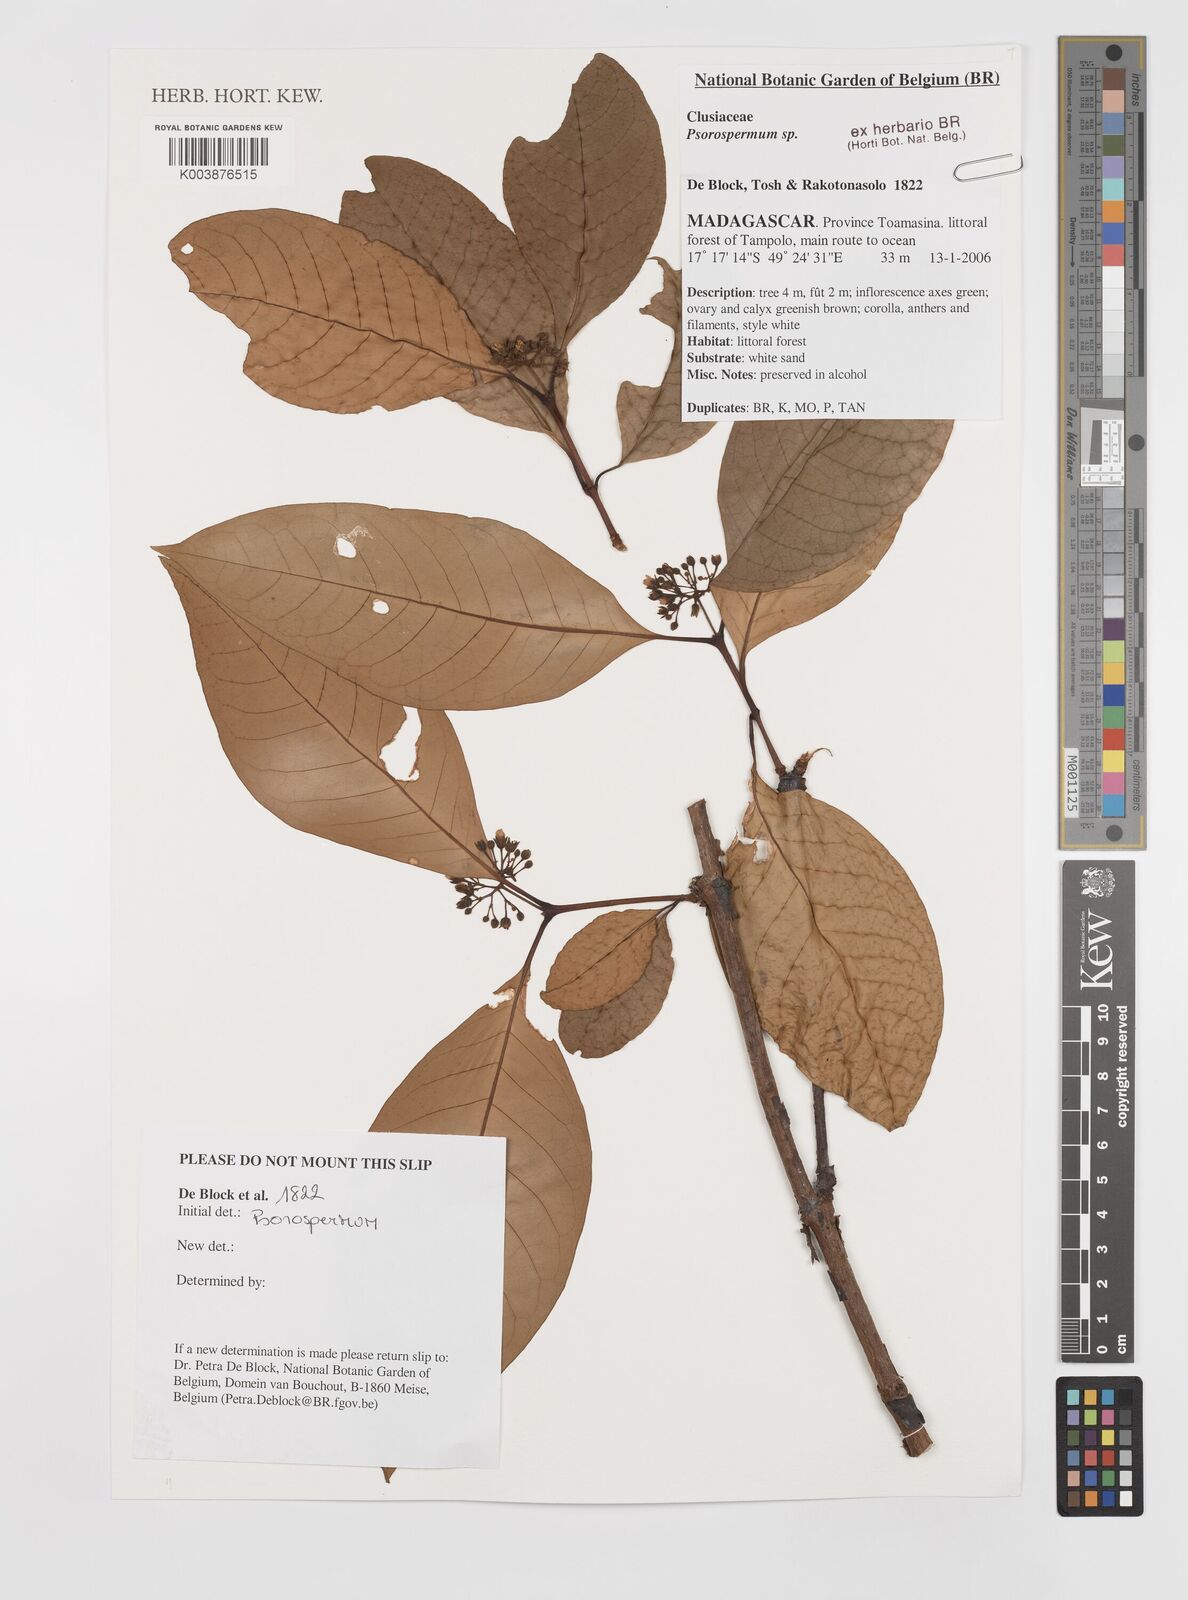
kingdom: Plantae
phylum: Tracheophyta
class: Magnoliopsida
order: Malpighiales
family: Hypericaceae
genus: Psorospermum
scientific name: Psorospermum
